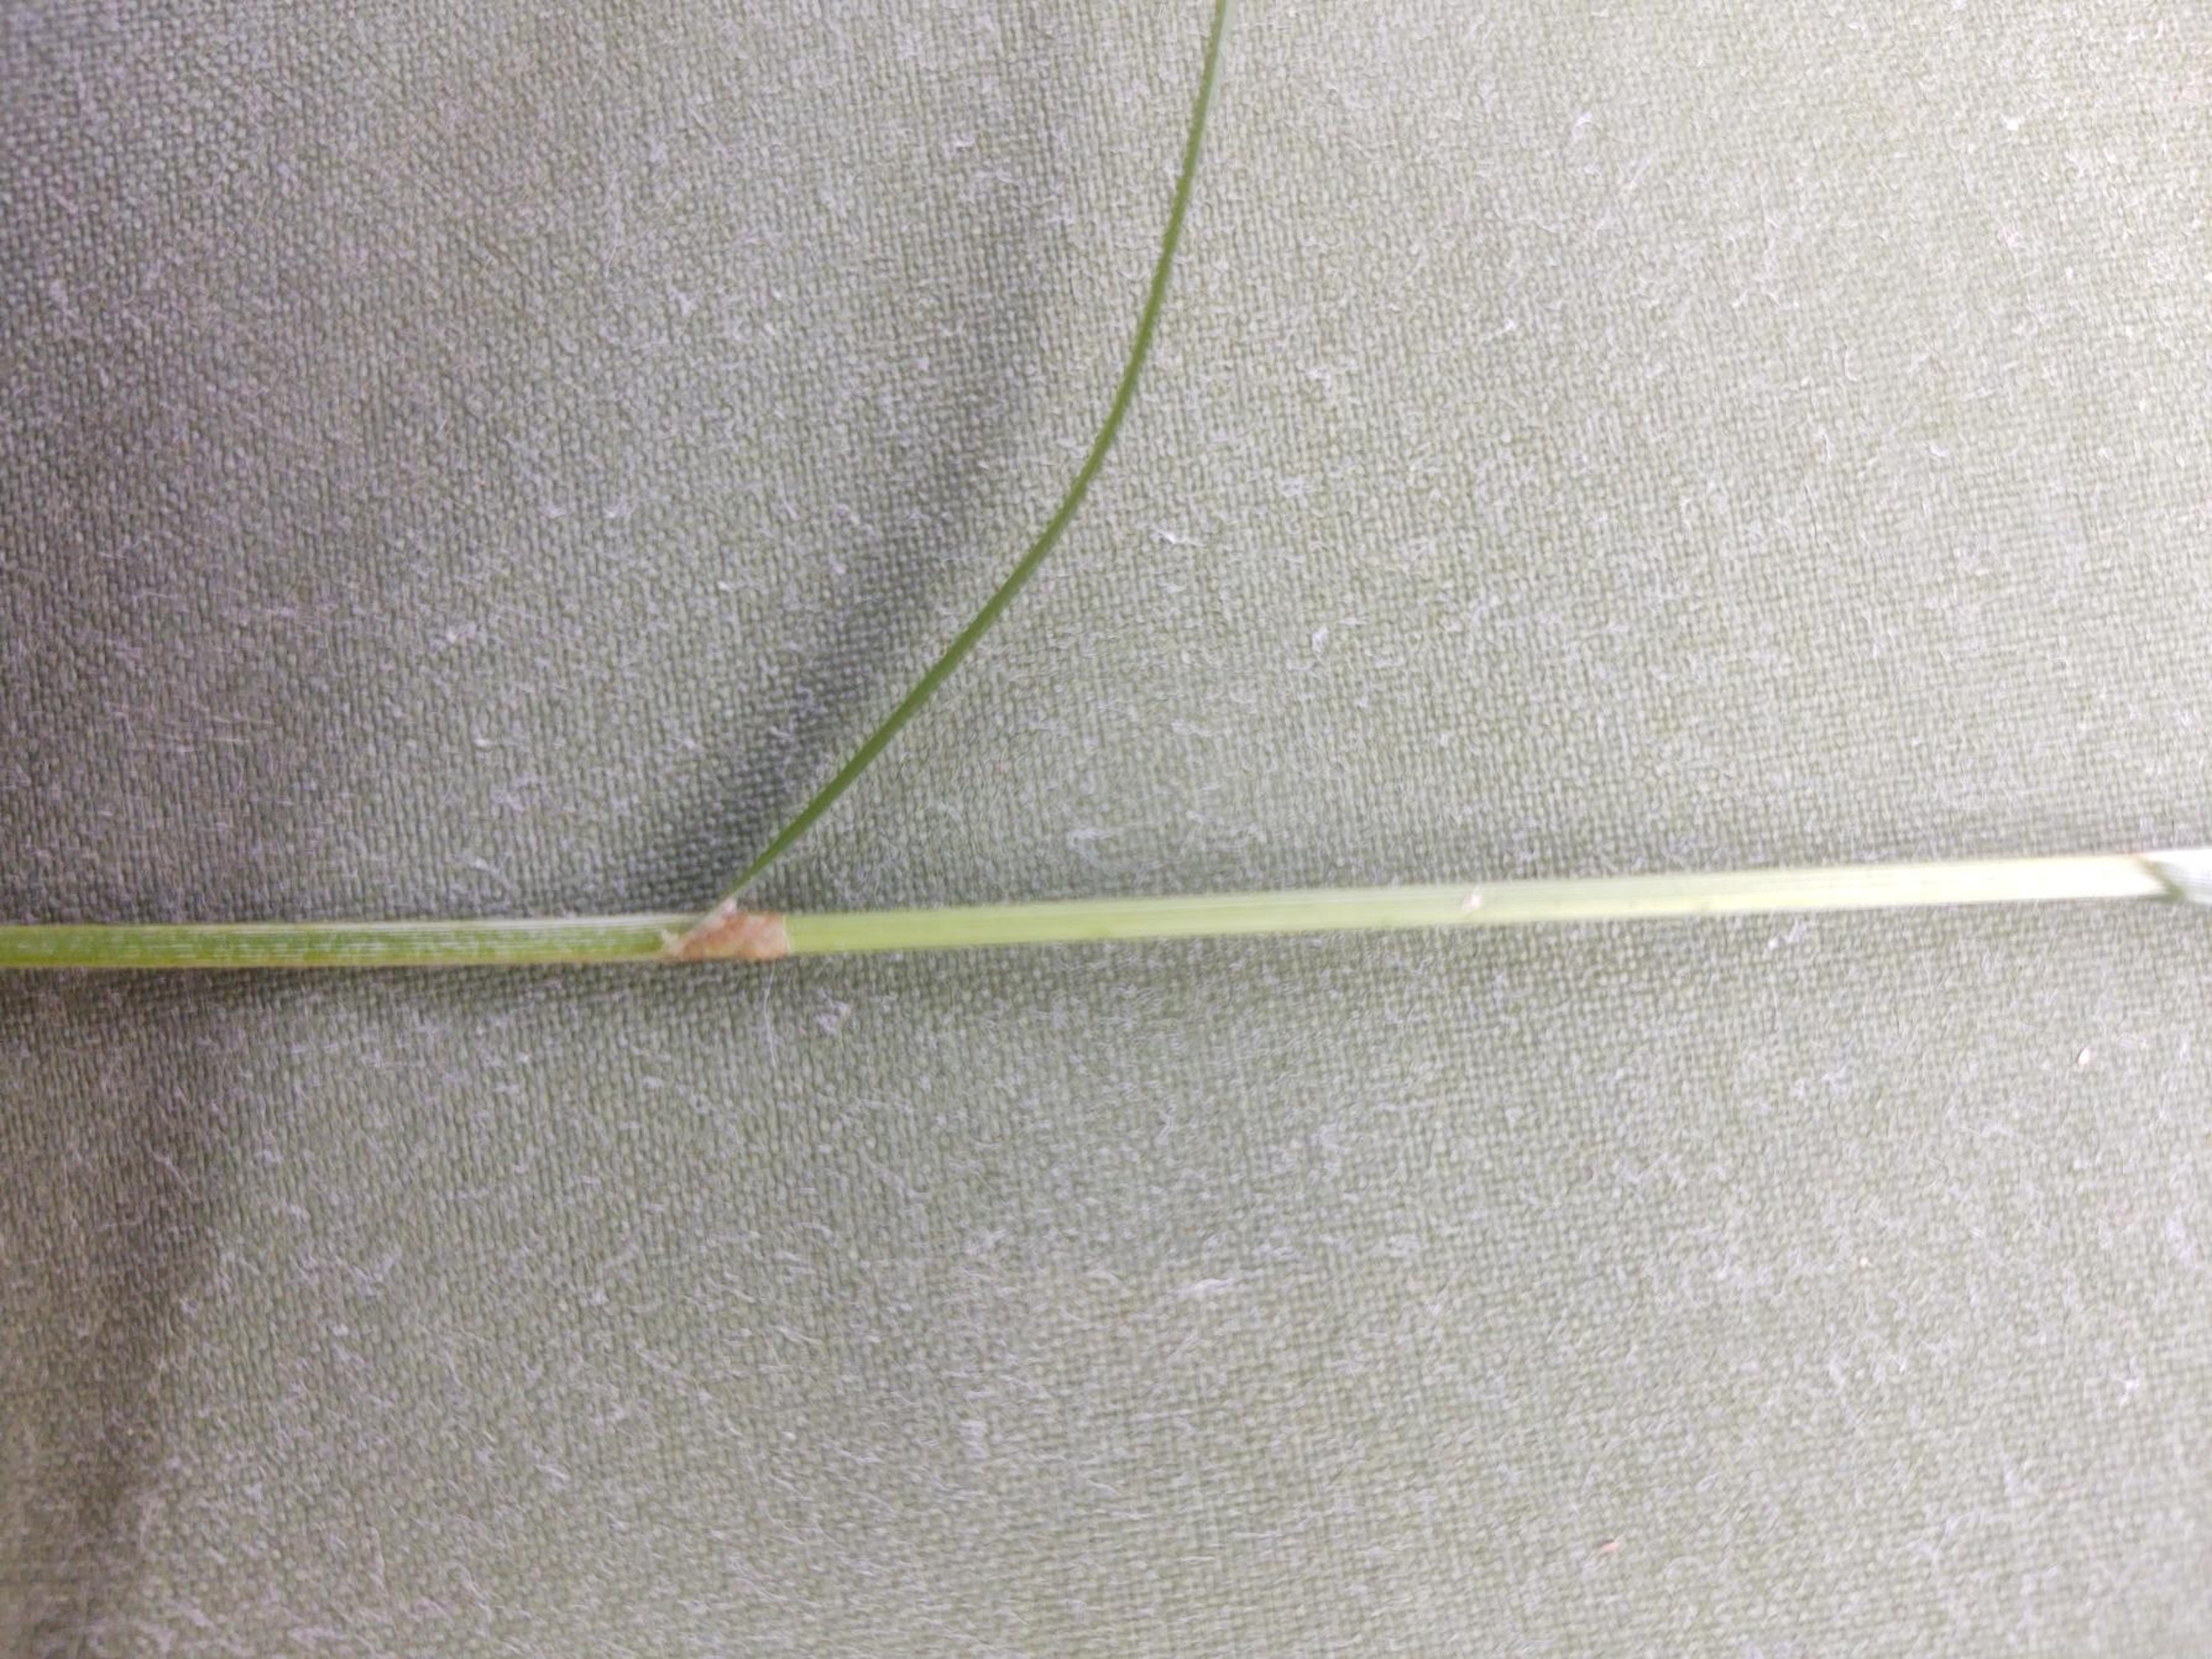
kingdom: Plantae
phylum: Tracheophyta
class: Liliopsida
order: Poales
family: Cyperaceae
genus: Carex
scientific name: Carex brizoides
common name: Bævre-star
